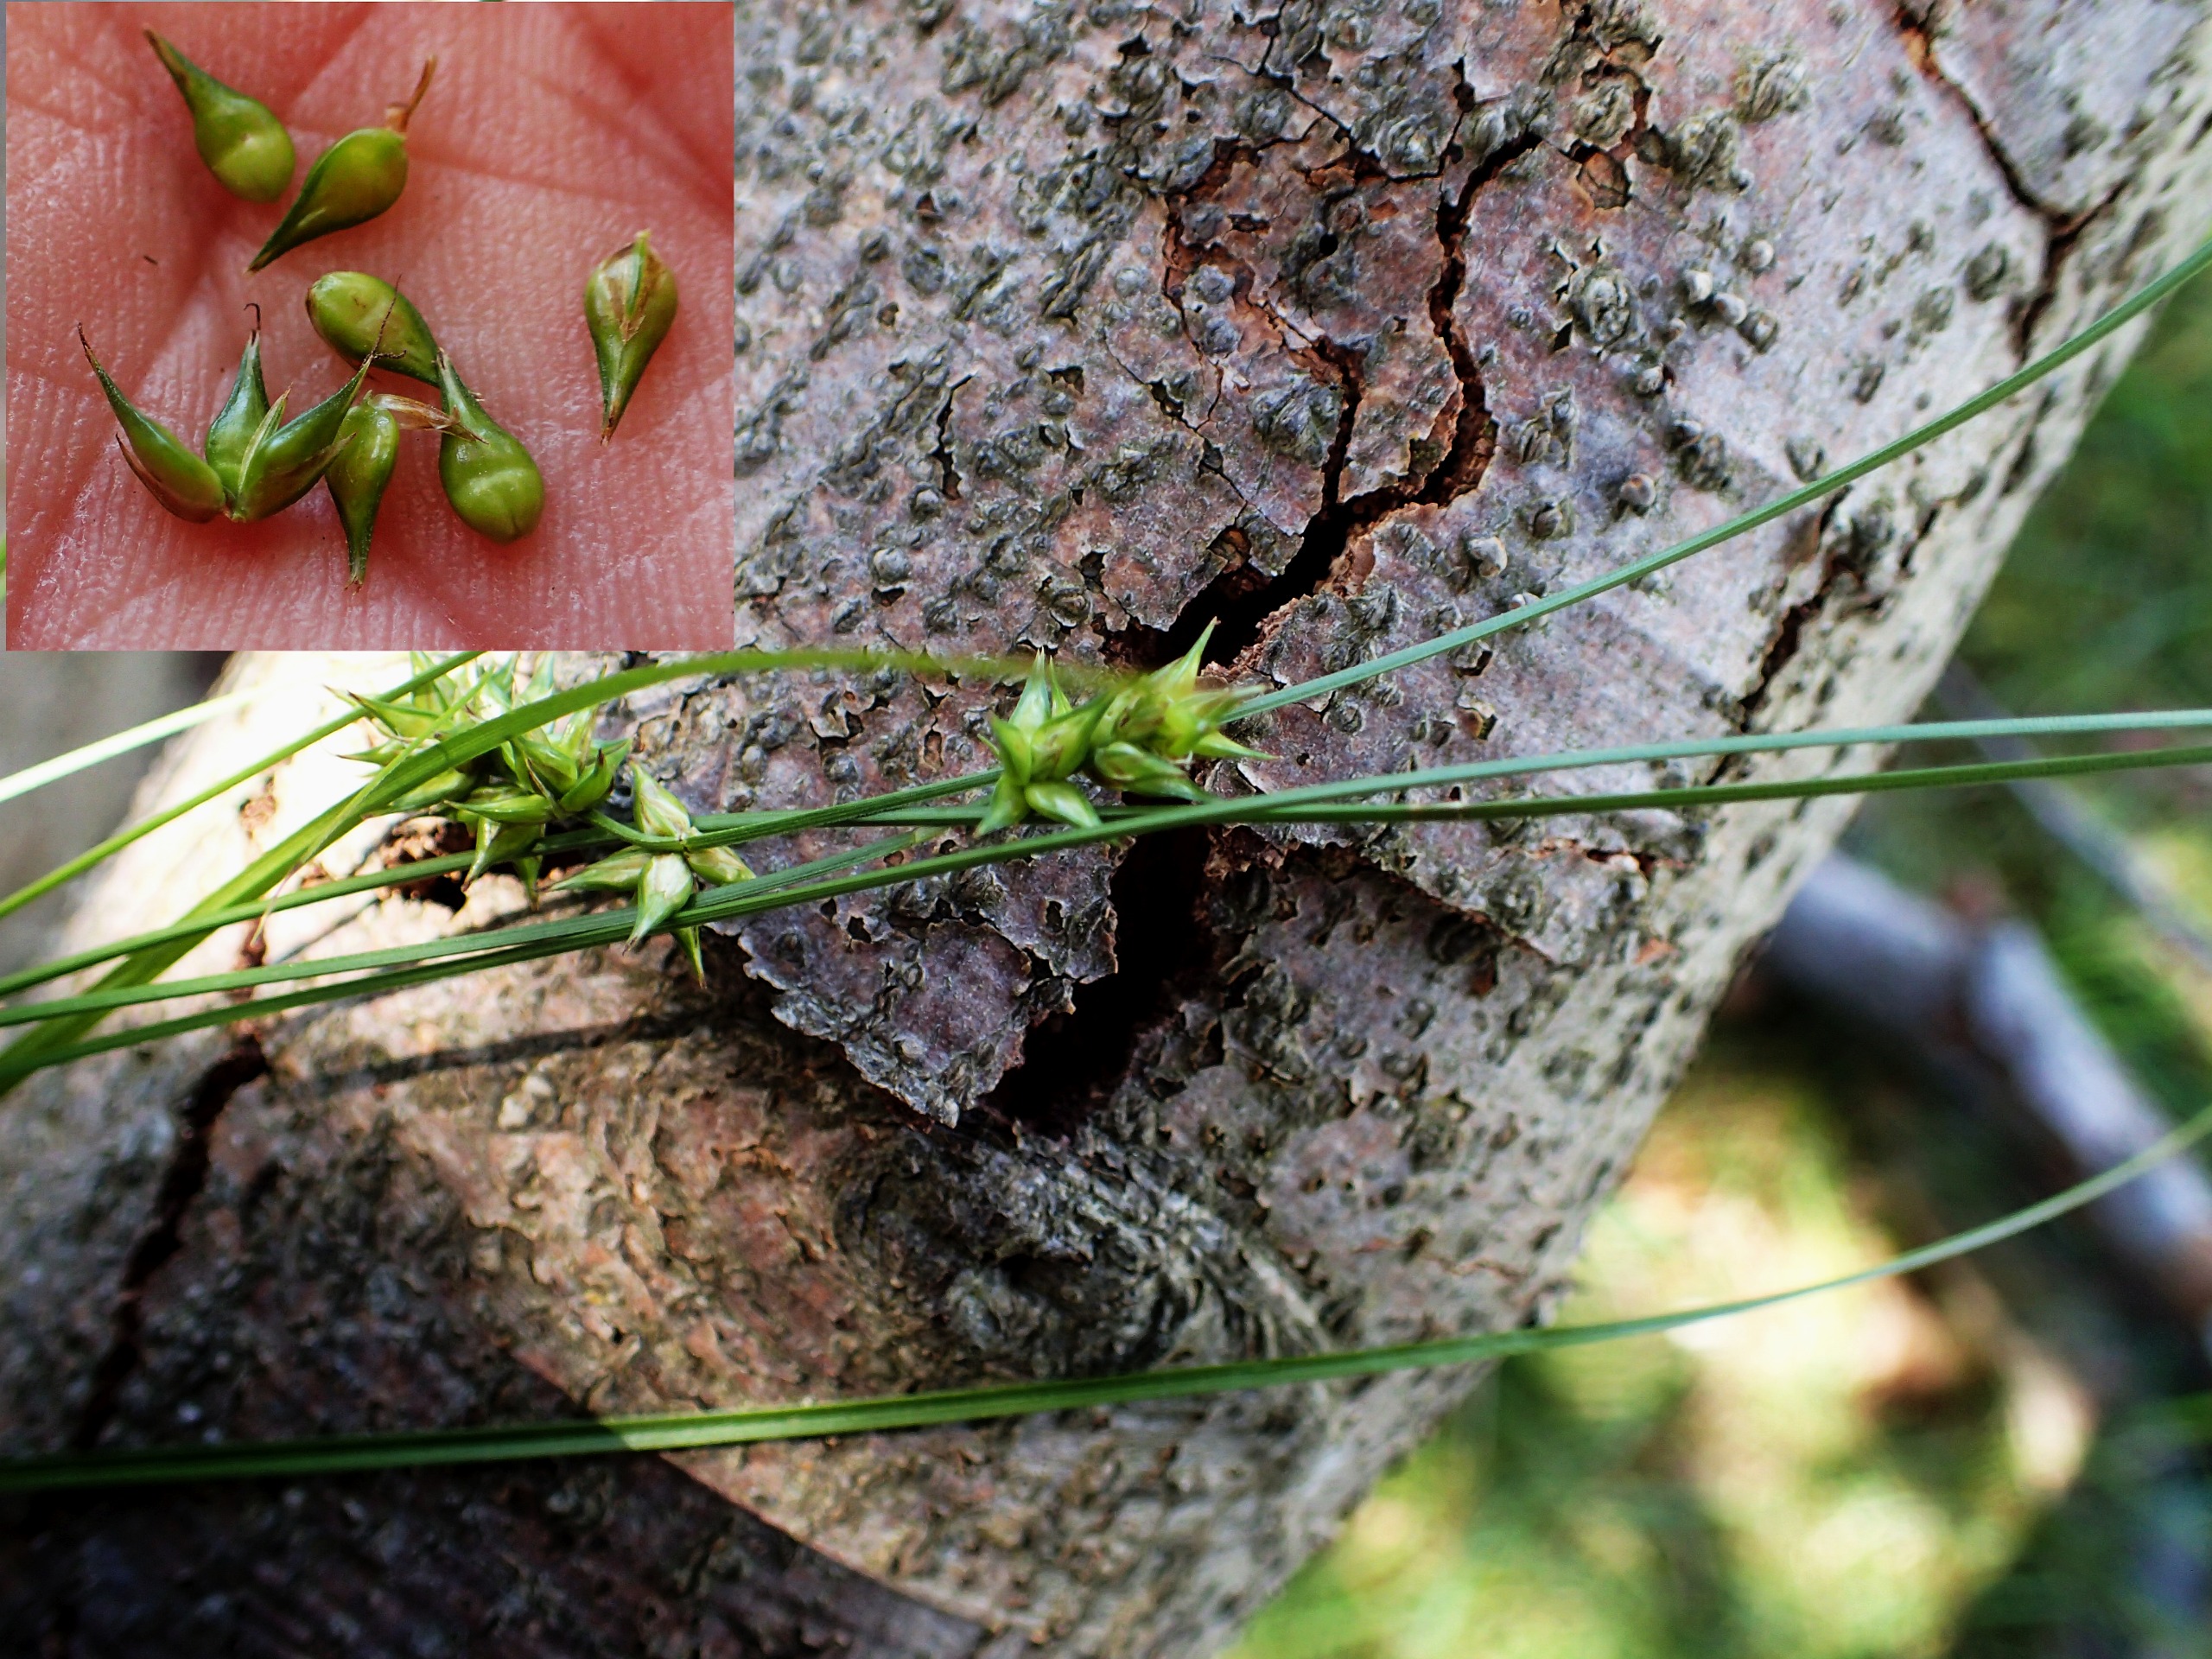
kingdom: Plantae
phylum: Tracheophyta
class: Liliopsida
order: Poales
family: Cyperaceae
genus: Carex
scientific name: Carex spicata
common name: Spidskapslet star
